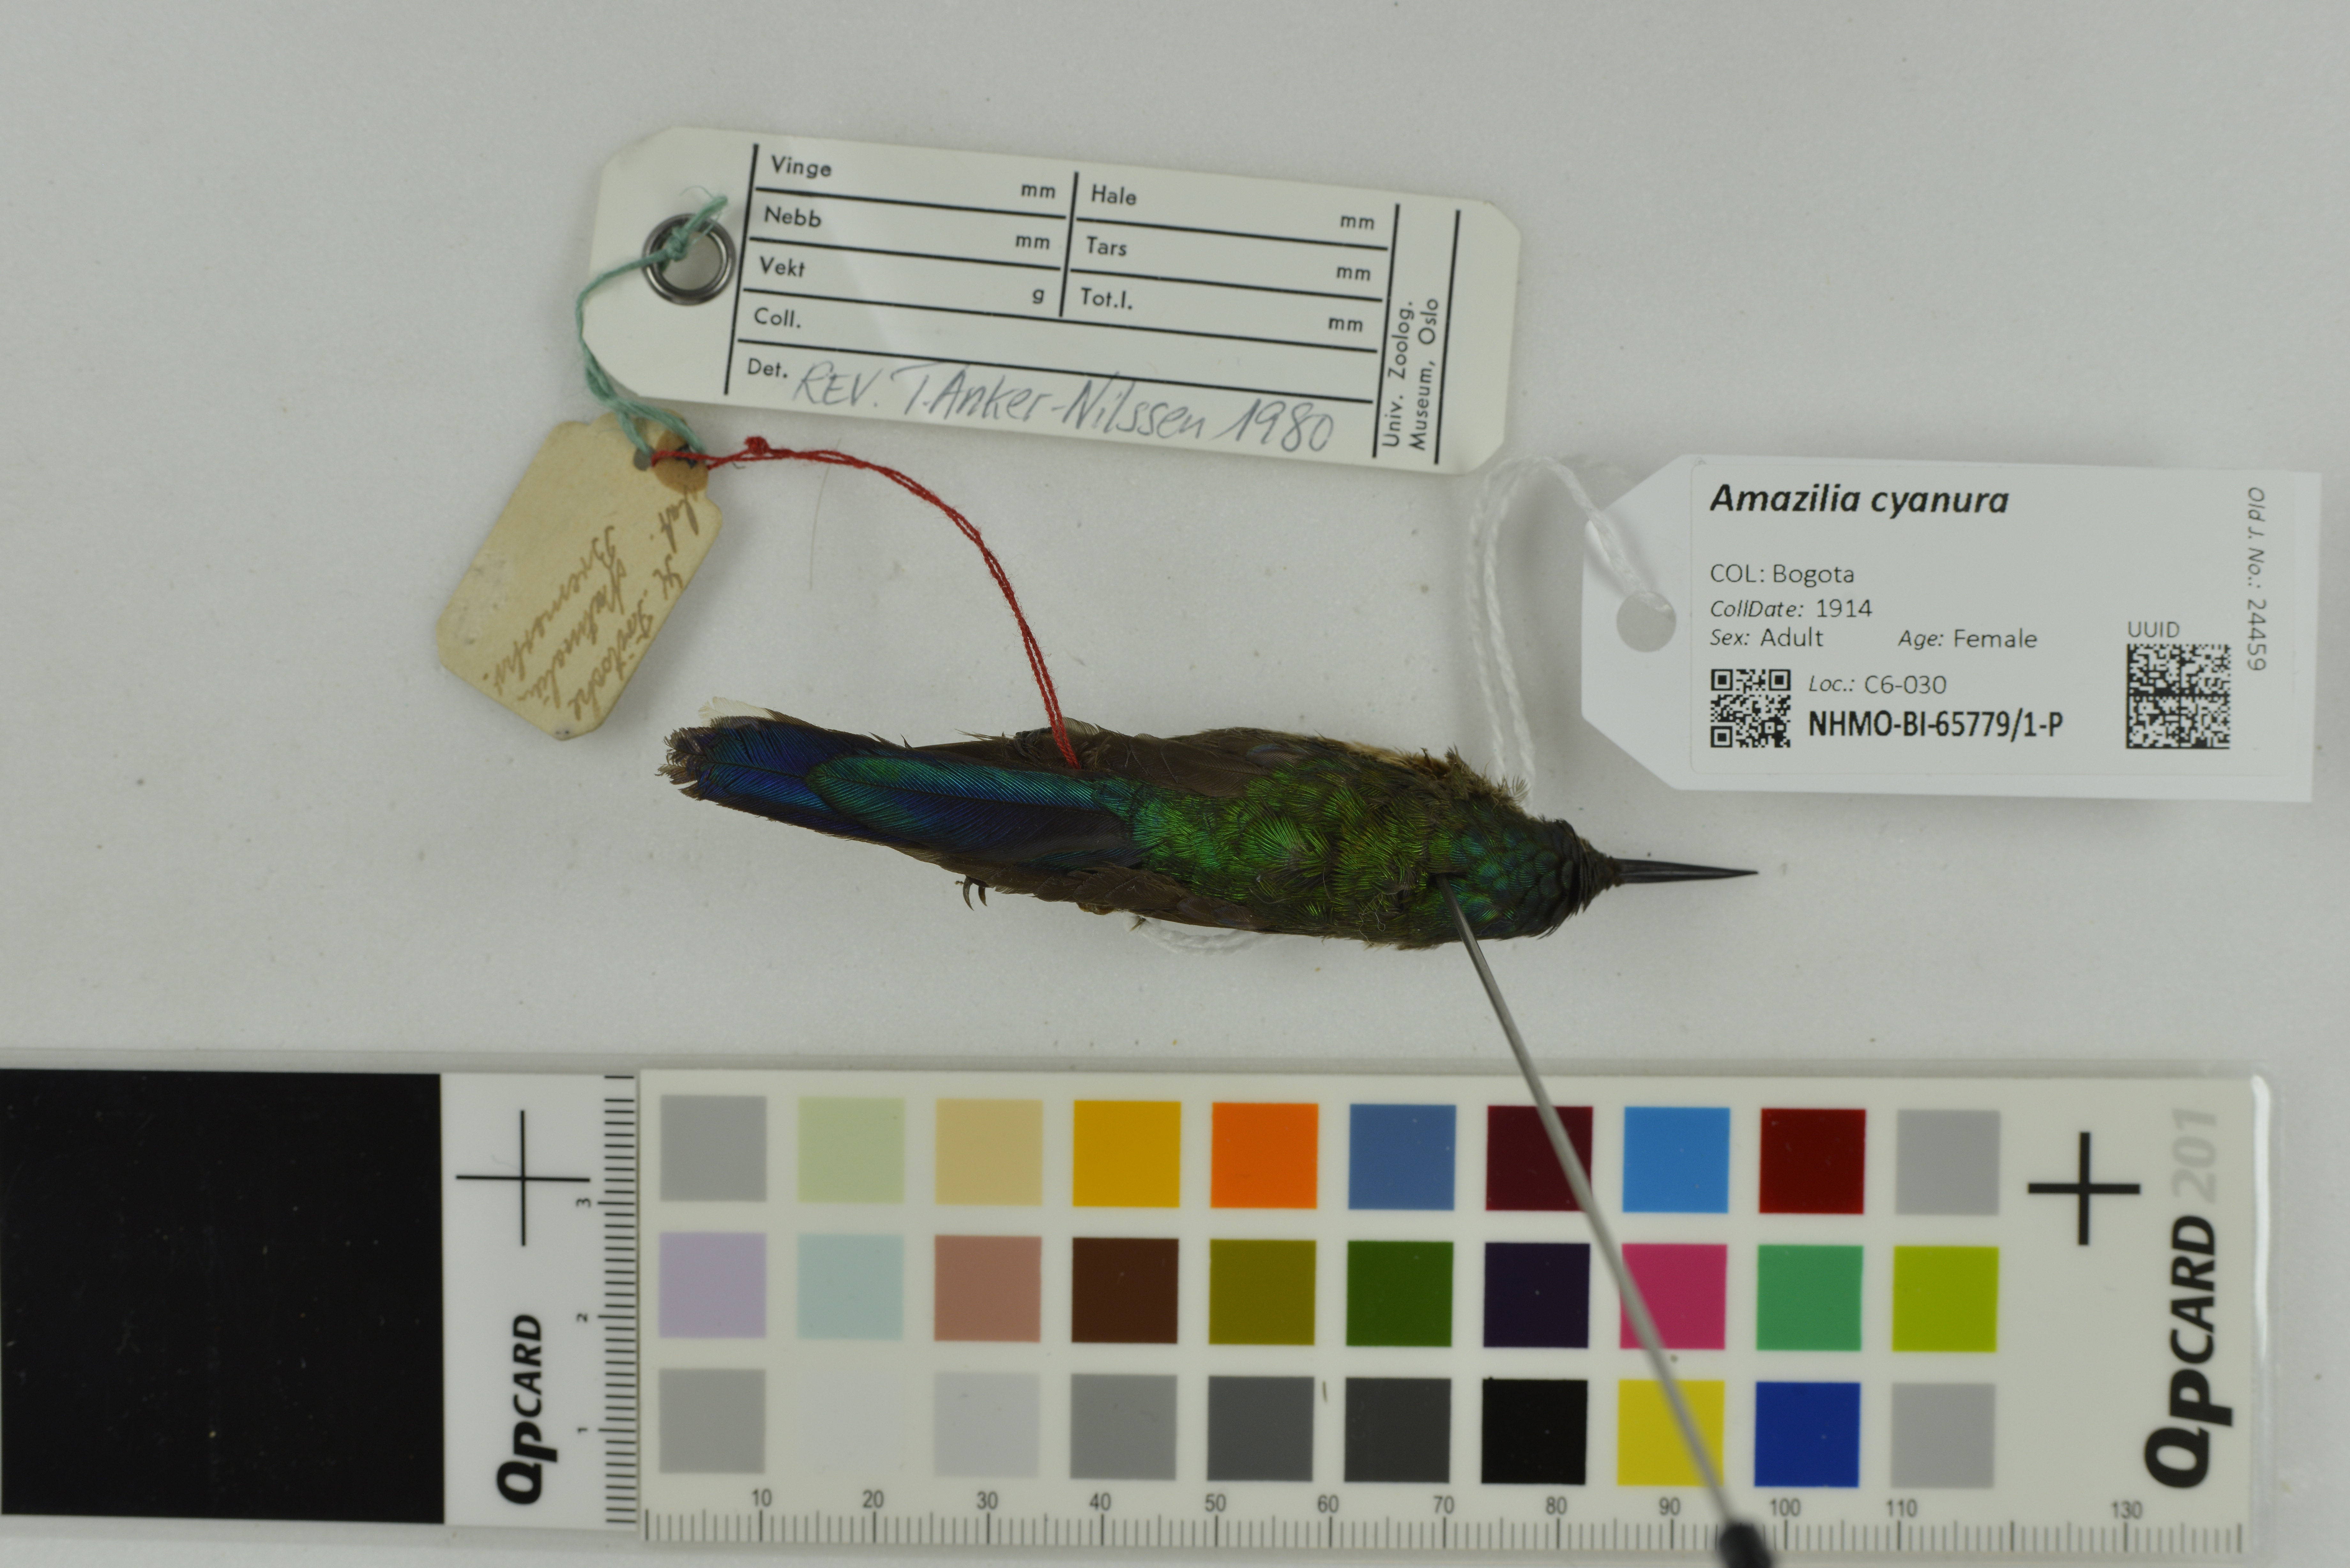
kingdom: Animalia
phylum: Chordata
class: Aves
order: Apodiformes
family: Trochilidae
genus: Saucerottia
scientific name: Saucerottia cyanura
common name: Blue-tailed hummingbird
